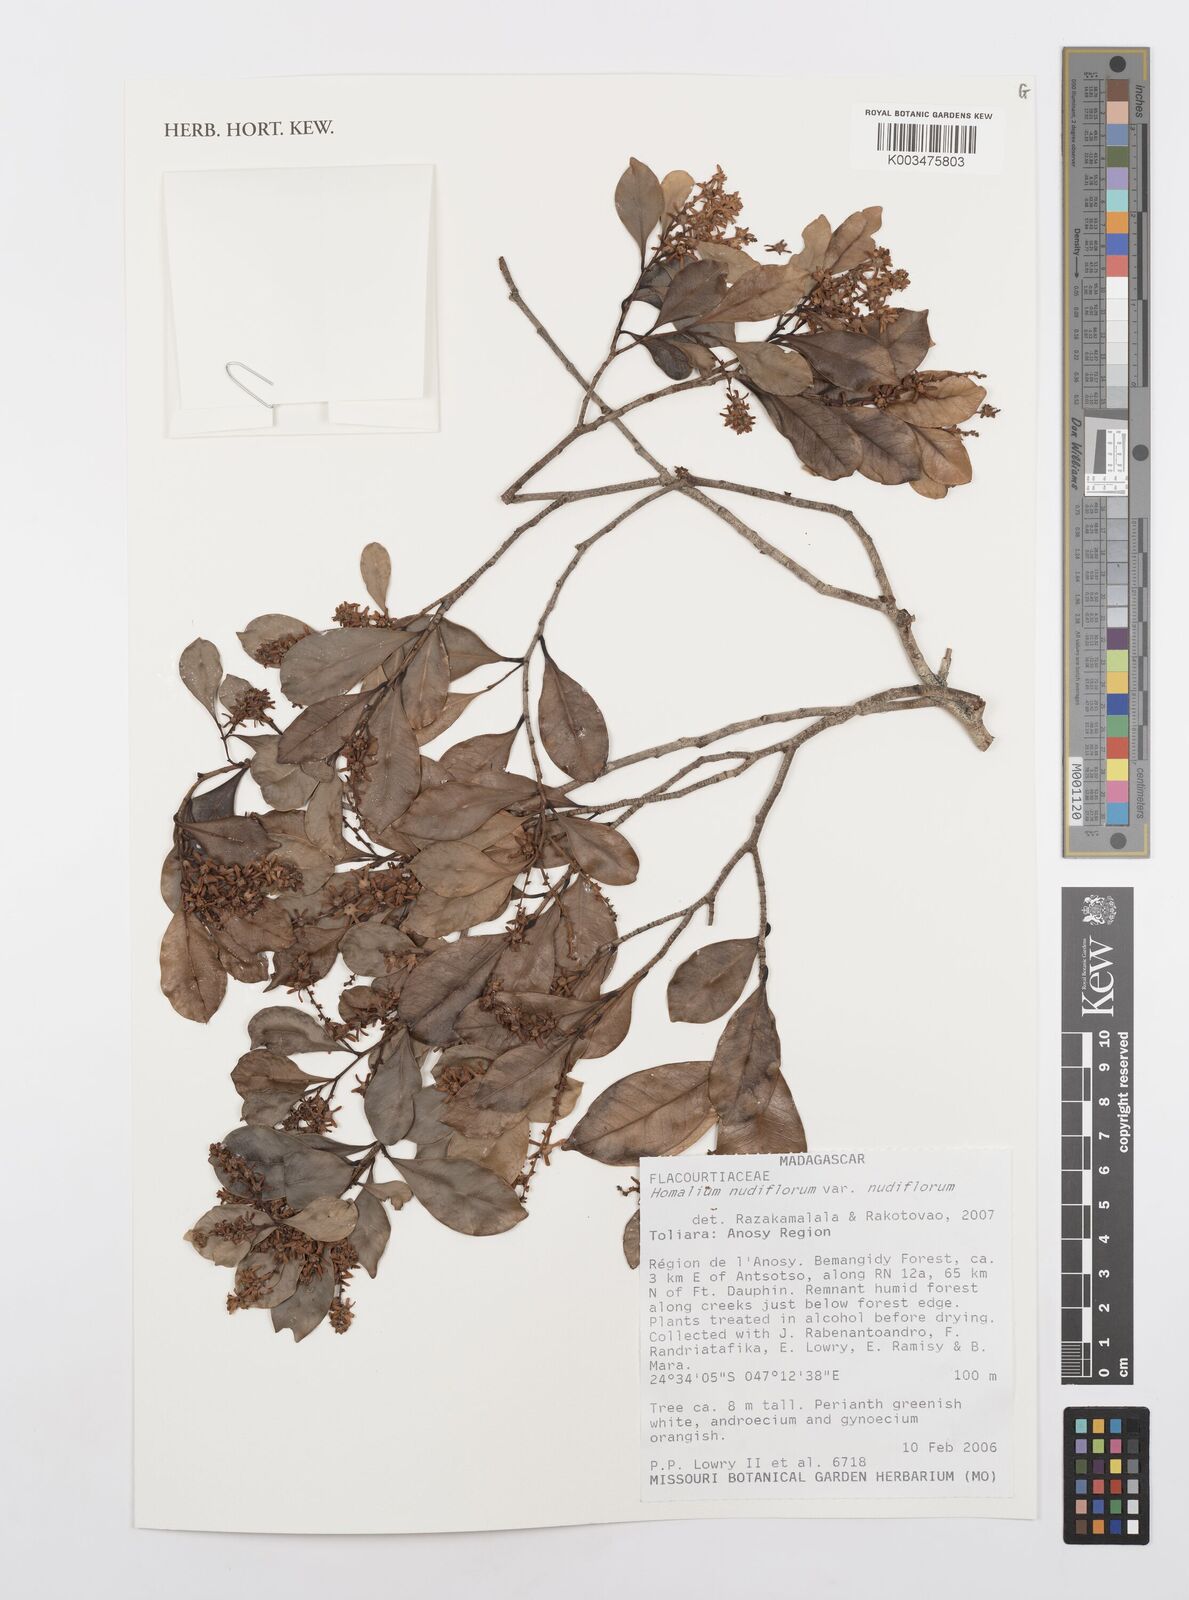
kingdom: Plantae
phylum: Tracheophyta
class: Magnoliopsida
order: Malpighiales
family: Salicaceae
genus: Homalium
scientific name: Homalium nudiflorum
